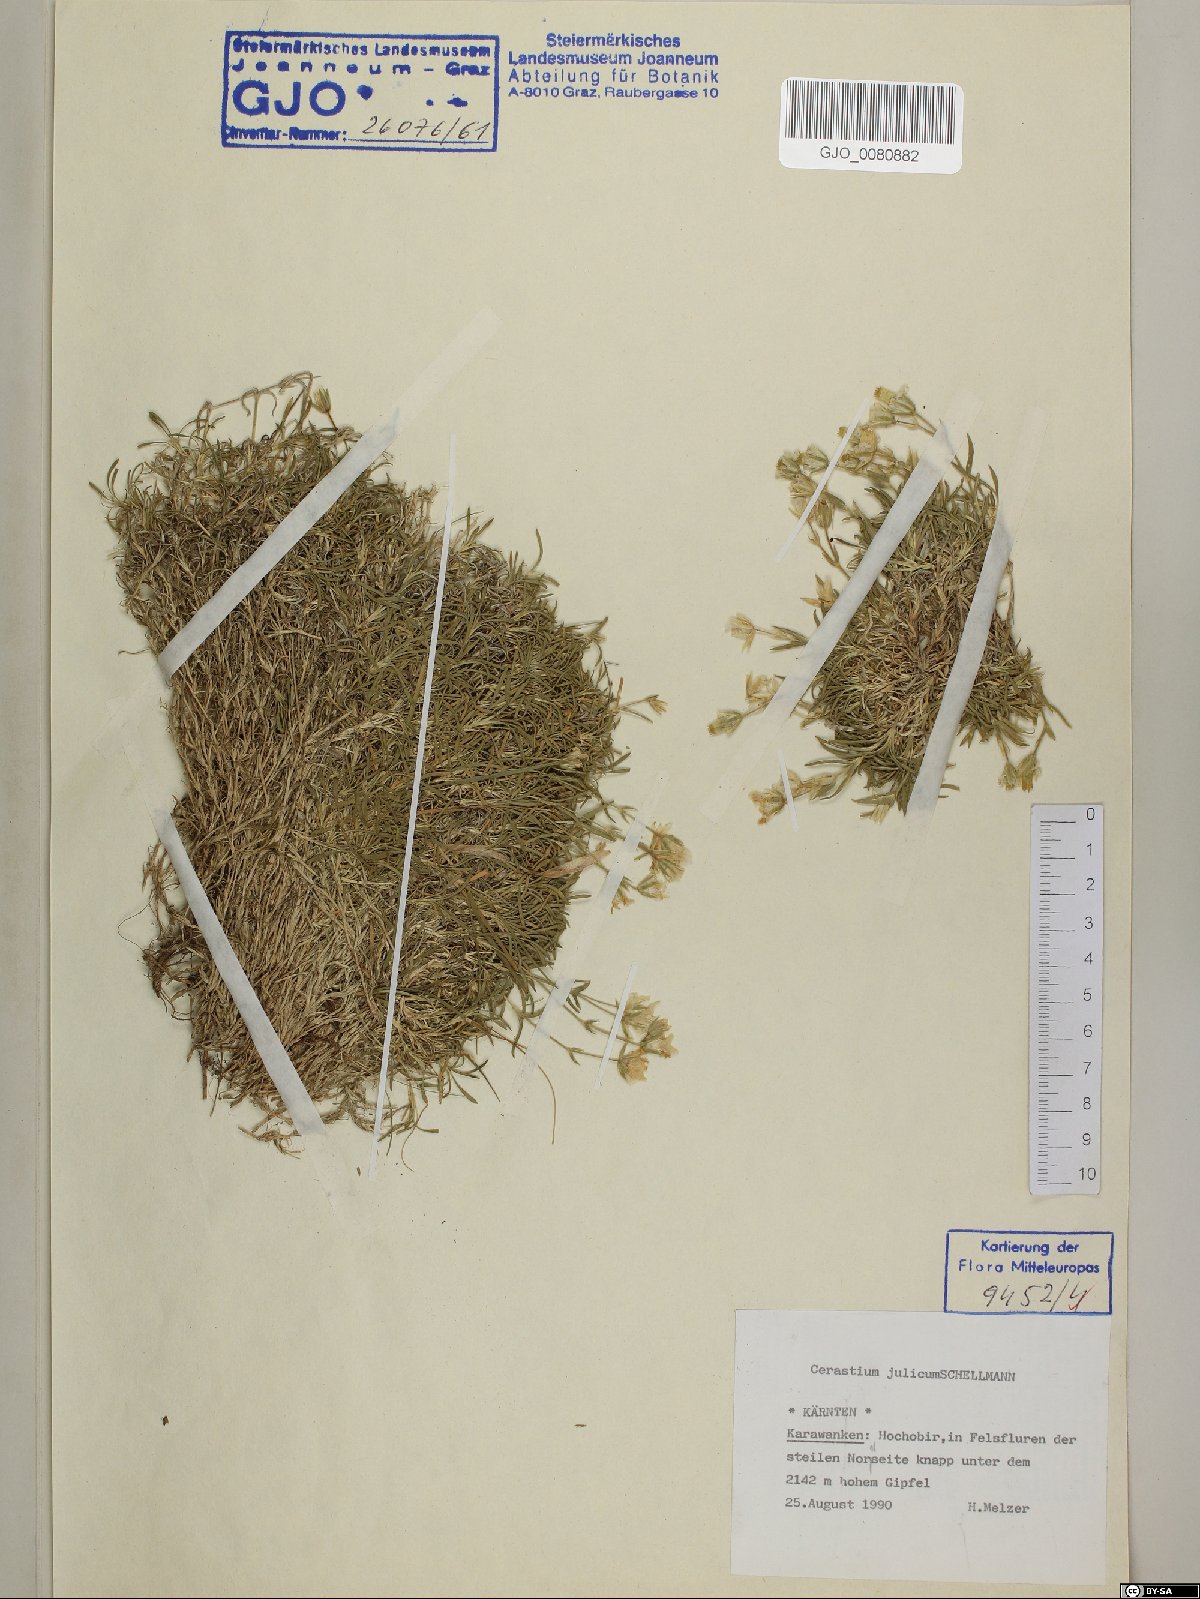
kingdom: Plantae
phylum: Tracheophyta
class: Magnoliopsida
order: Caryophyllales
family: Caryophyllaceae
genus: Cerastium
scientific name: Cerastium julicum
